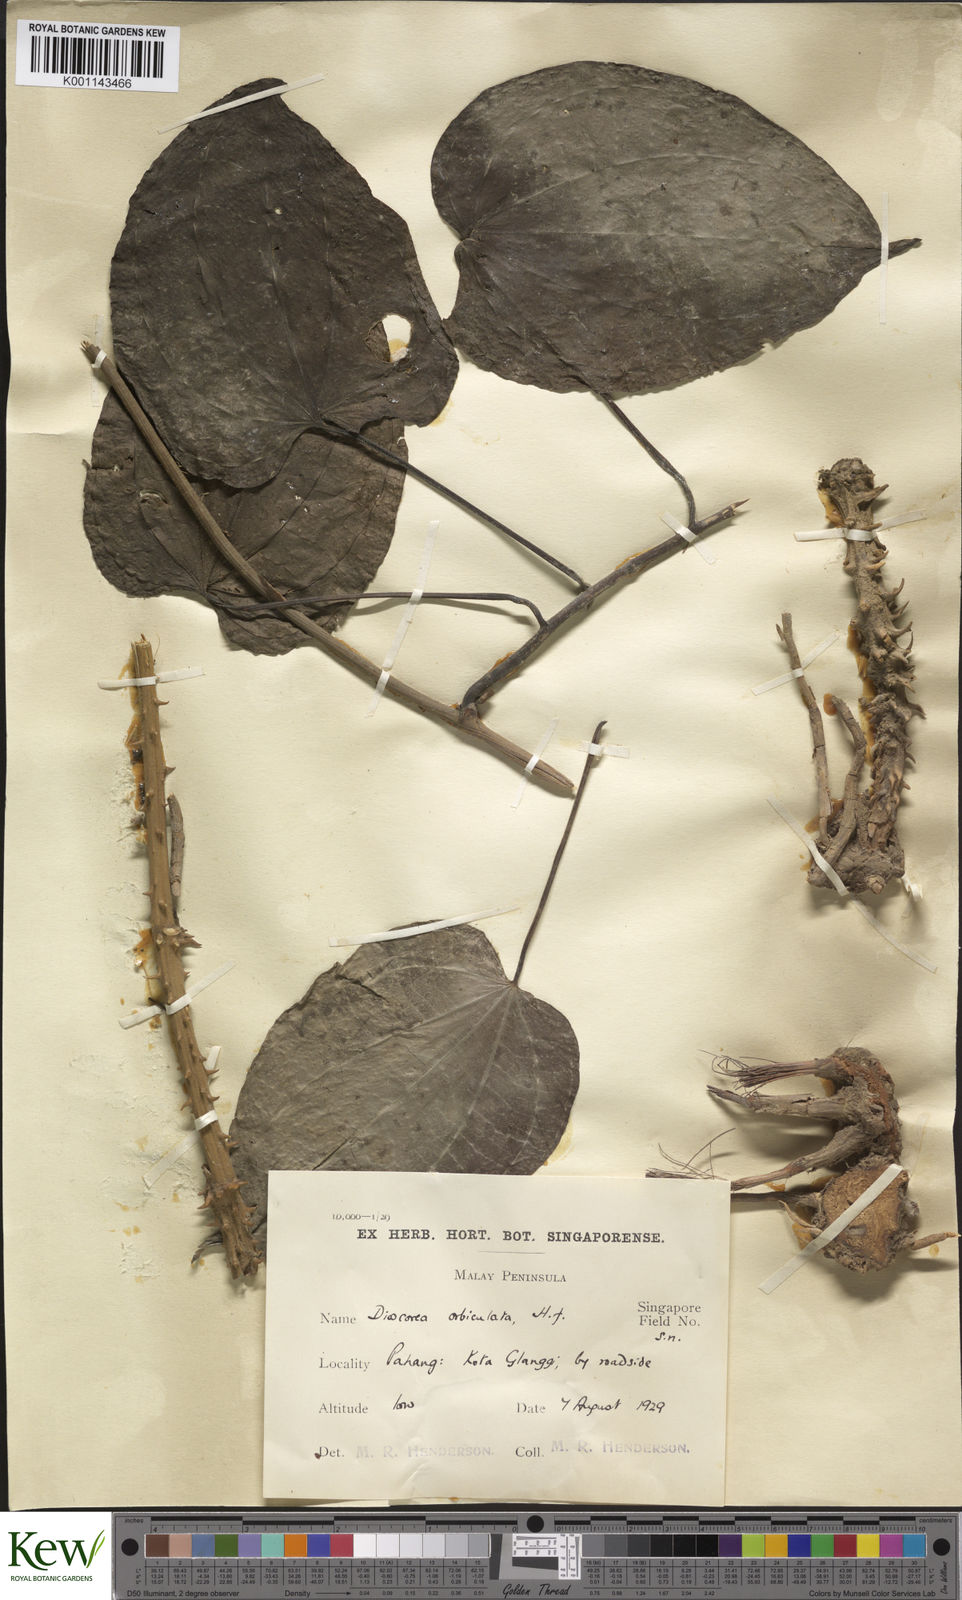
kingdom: Plantae
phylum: Tracheophyta
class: Liliopsida
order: Dioscoreales
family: Dioscoreaceae
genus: Dioscorea
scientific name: Dioscorea orbiculata
